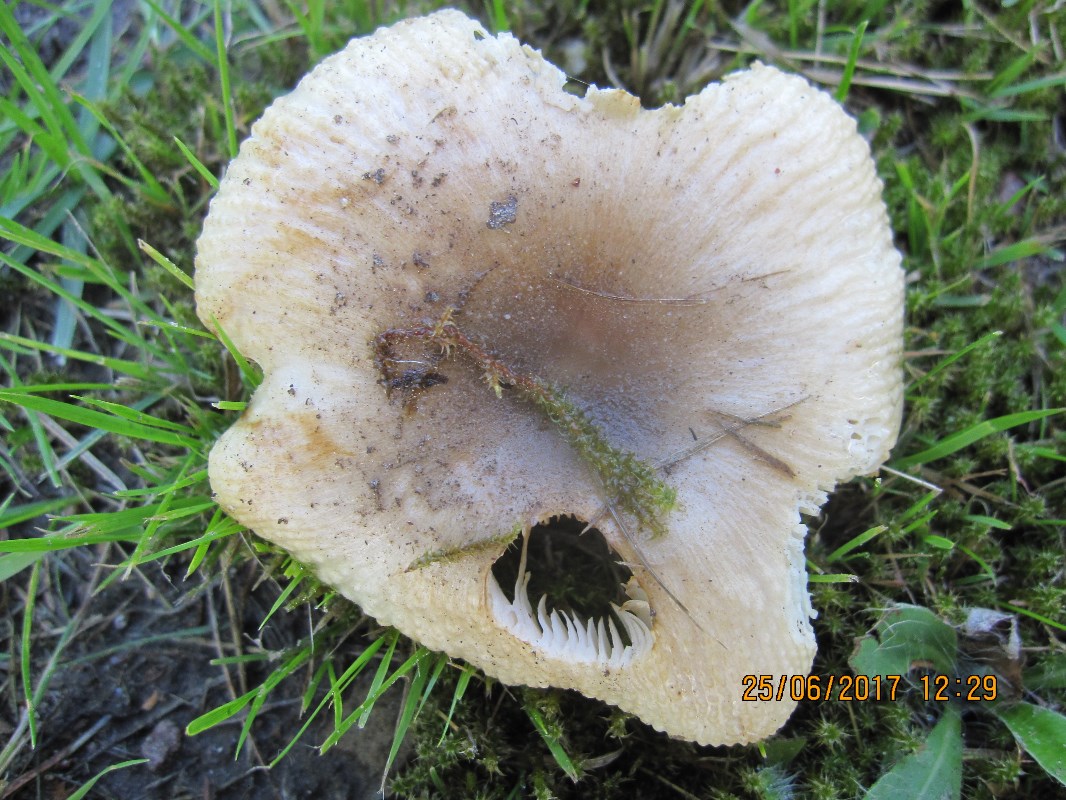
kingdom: Fungi
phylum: Basidiomycota
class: Agaricomycetes
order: Russulales
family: Russulaceae
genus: Russula
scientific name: Russula recondita
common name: mild kam-skørhat
